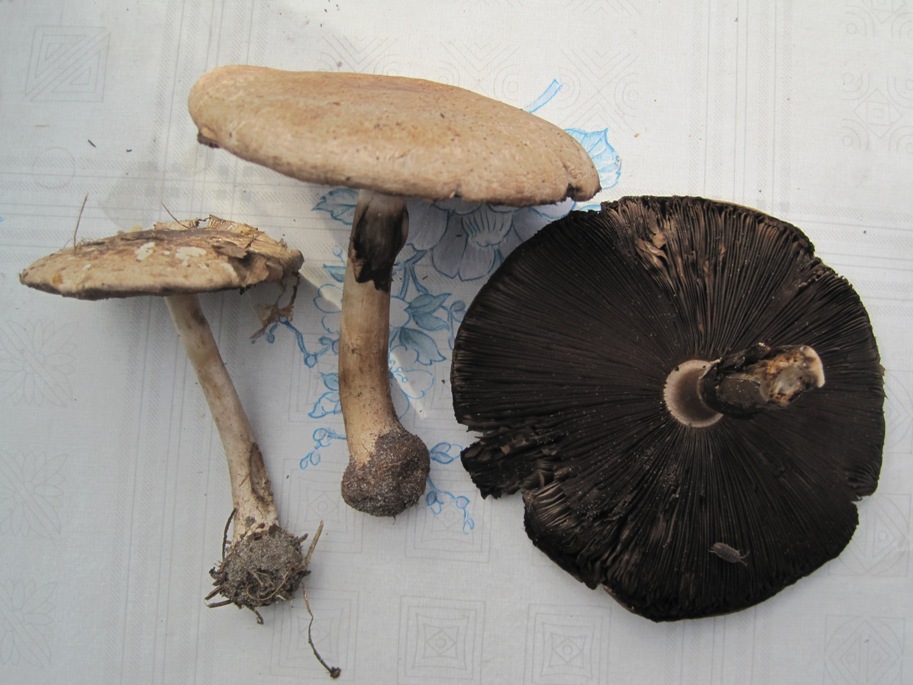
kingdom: Fungi
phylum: Basidiomycota
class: Agaricomycetes
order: Agaricales
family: Agaricaceae
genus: Agaricus
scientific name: Agaricus impudicus
